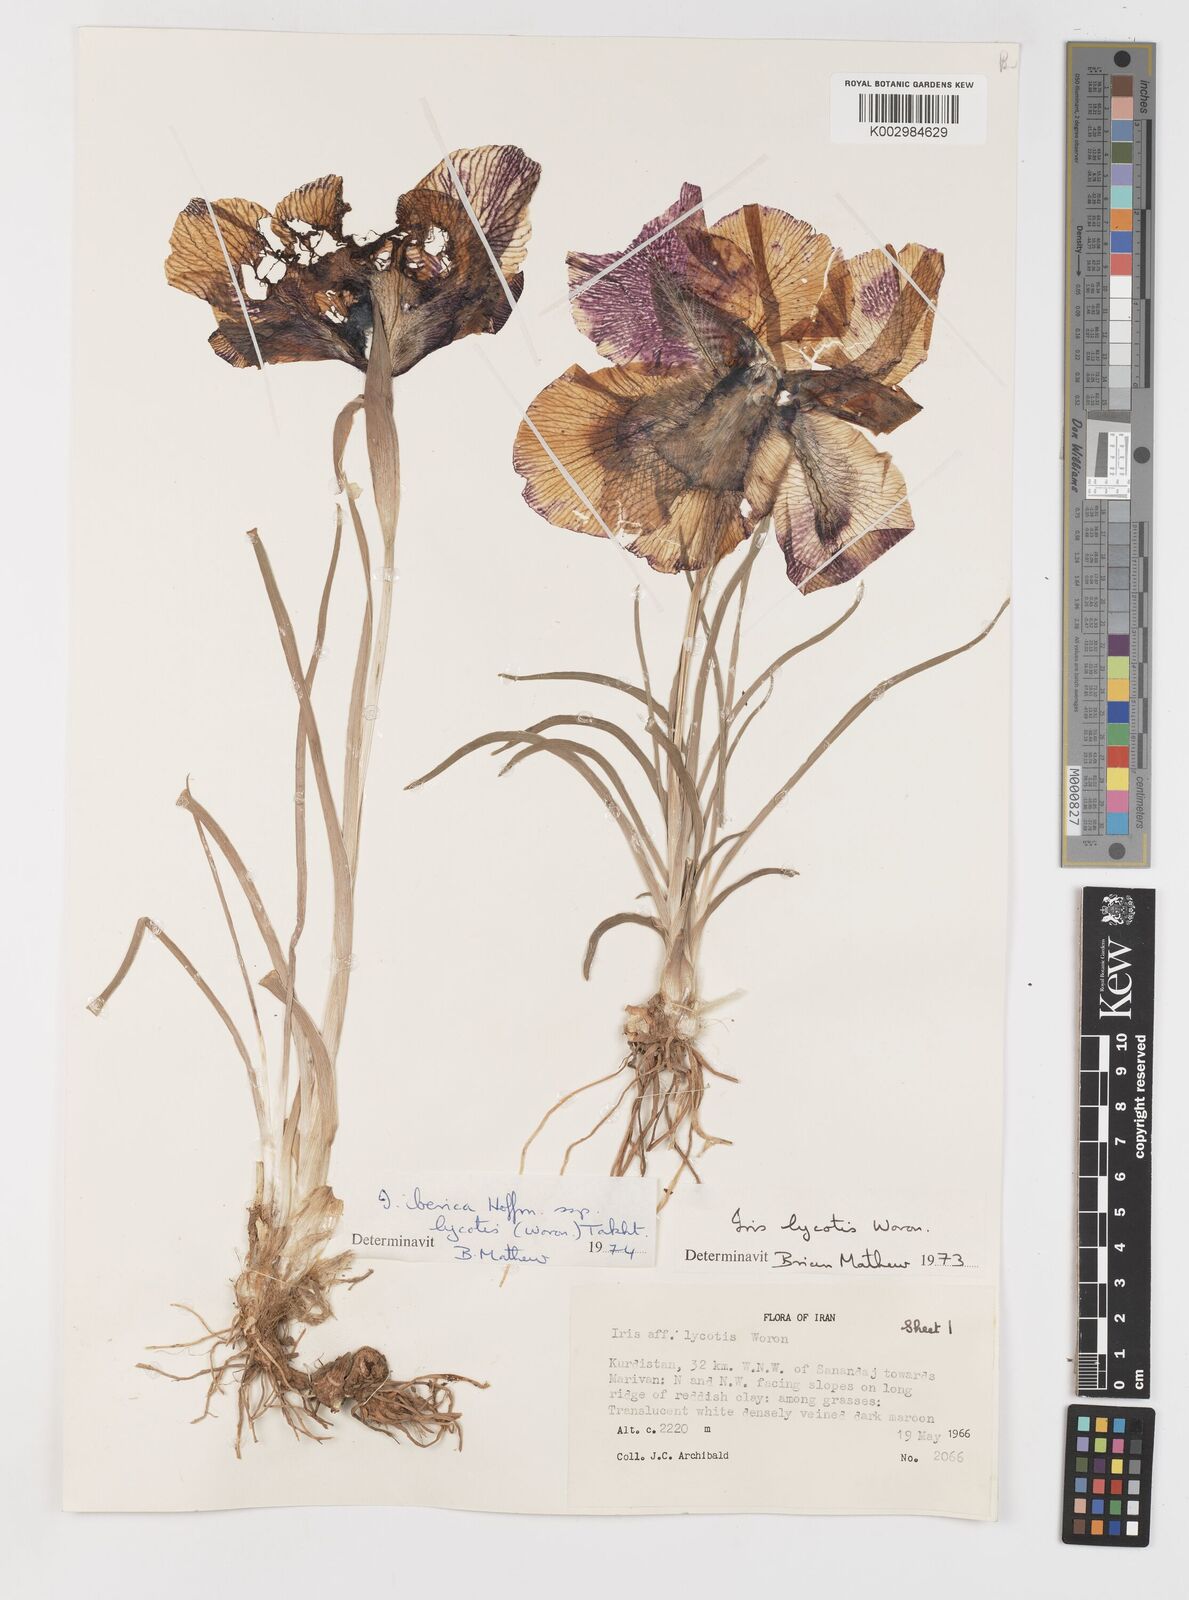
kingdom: Plantae
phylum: Tracheophyta
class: Liliopsida
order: Asparagales
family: Iridaceae
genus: Iris
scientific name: Iris lycotis
